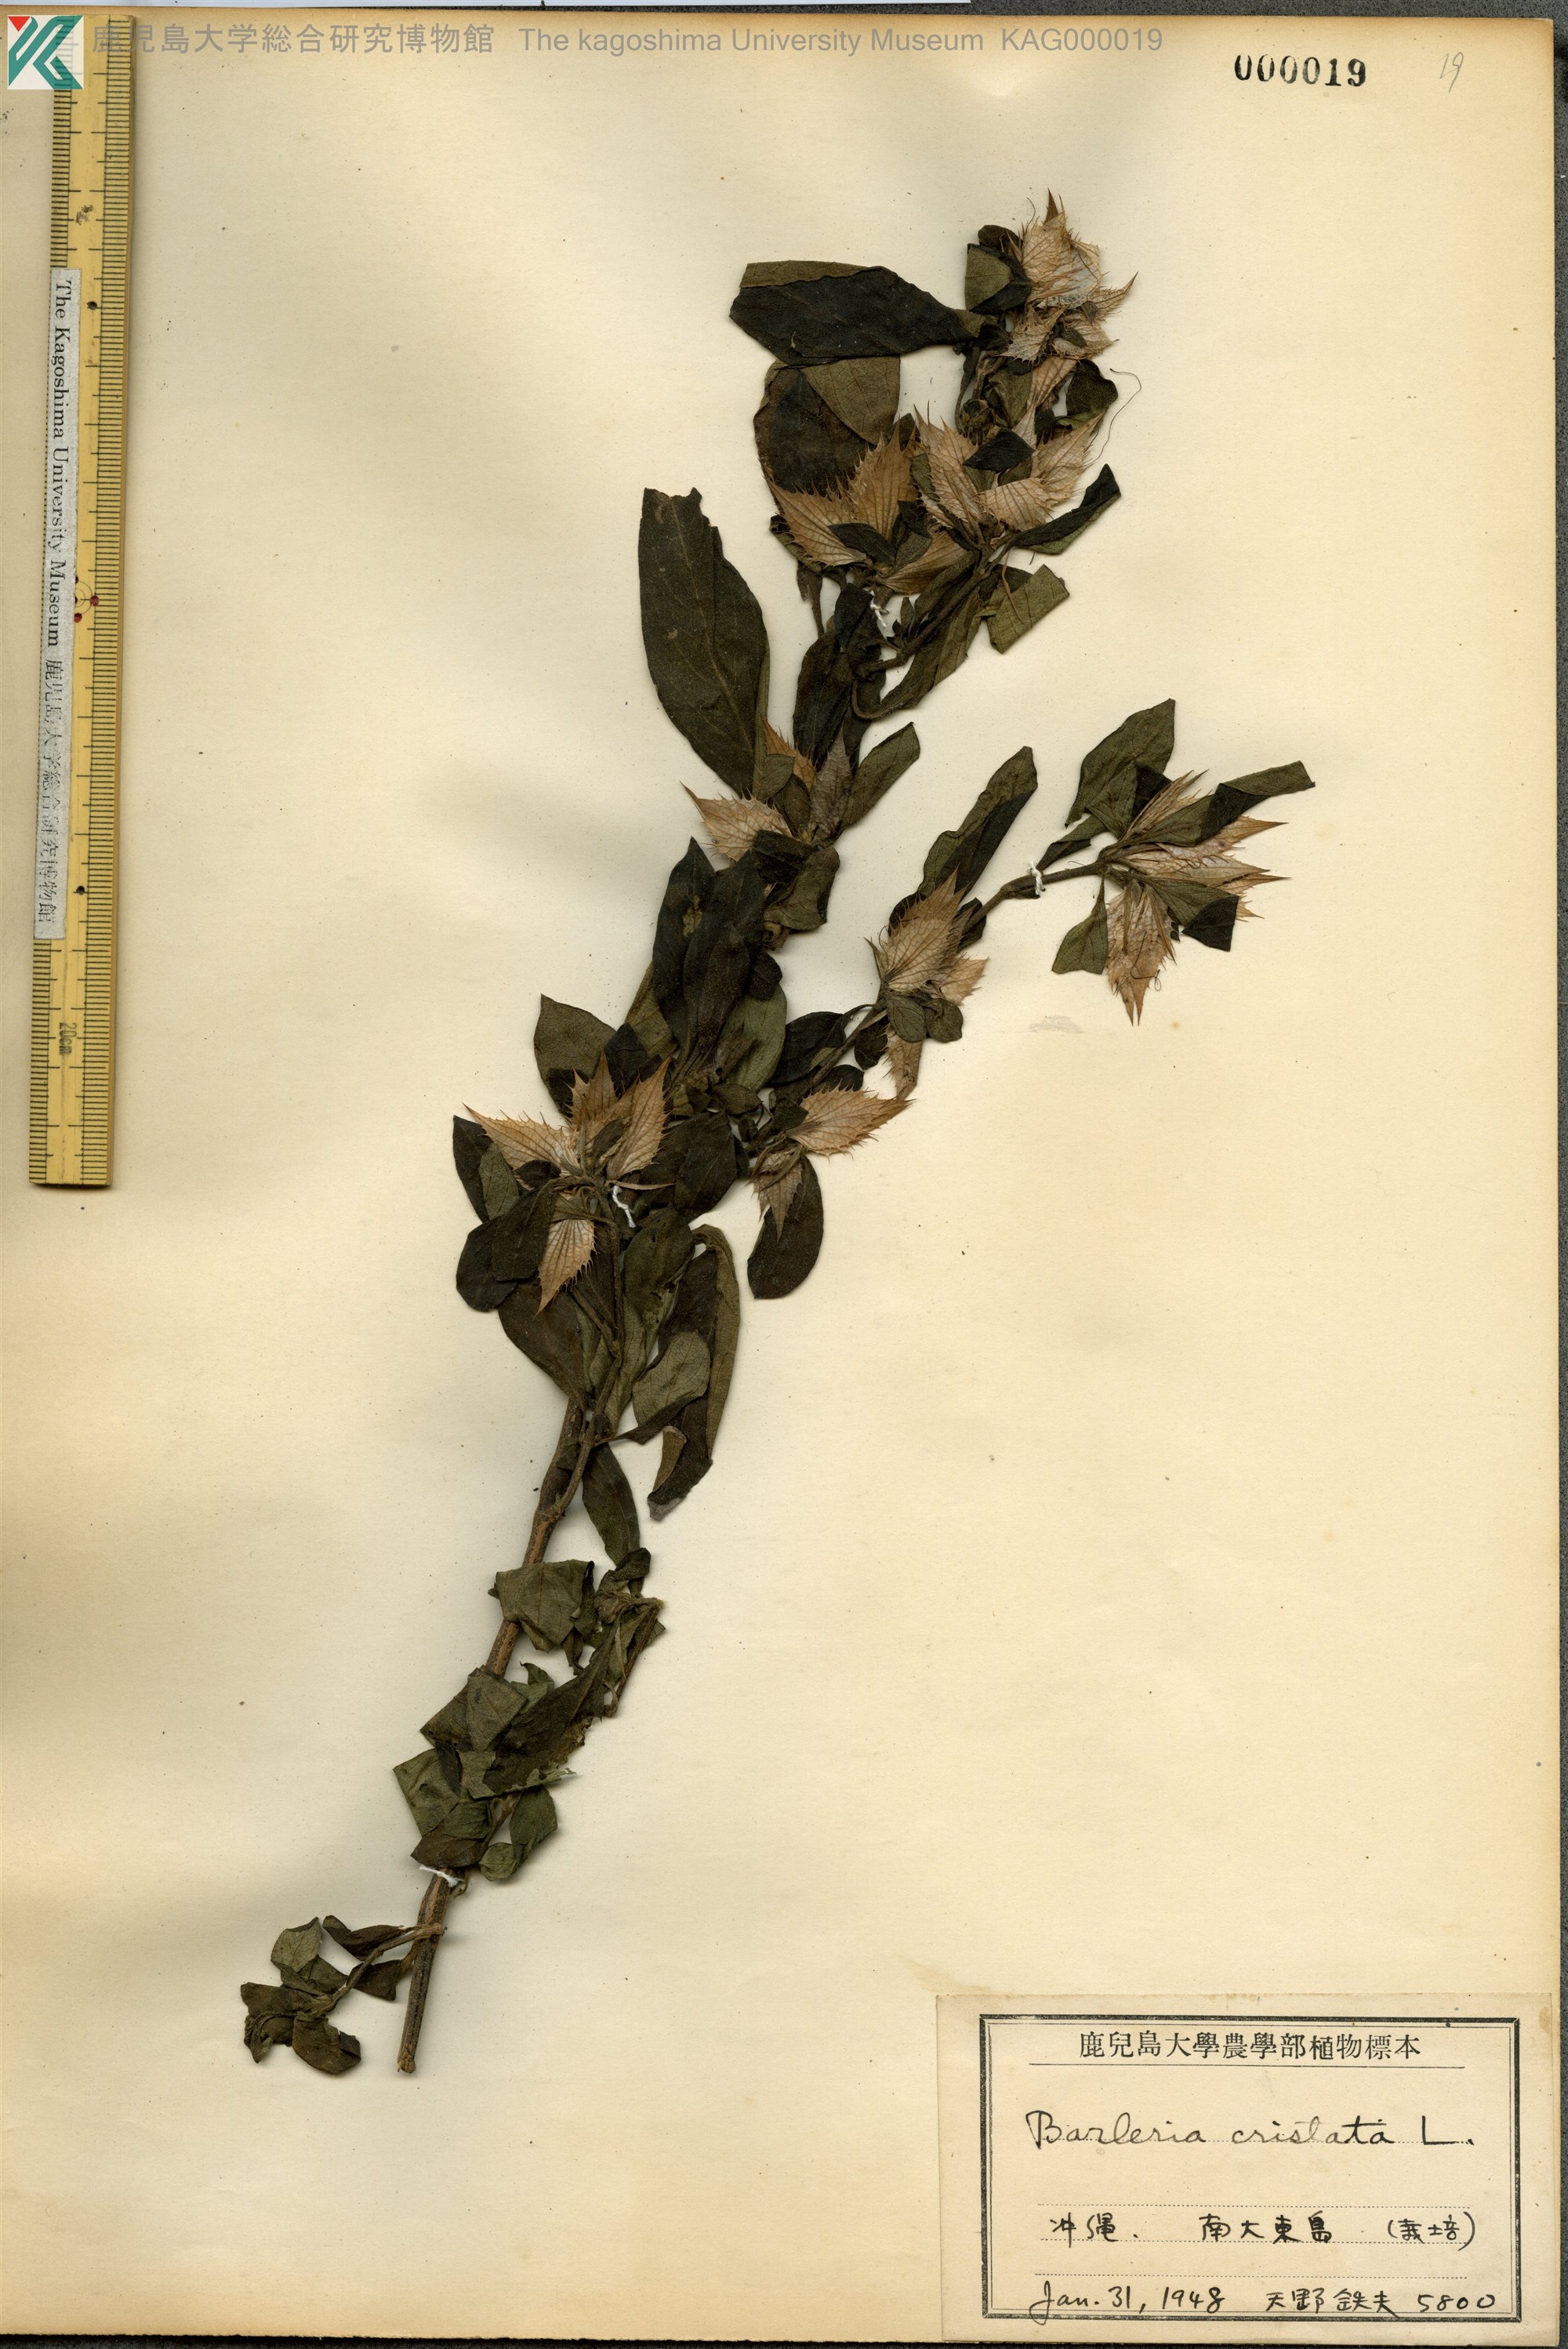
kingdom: Plantae
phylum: Tracheophyta
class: Magnoliopsida
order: Lamiales
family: Acanthaceae
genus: Barleria
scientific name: Barleria cristata
